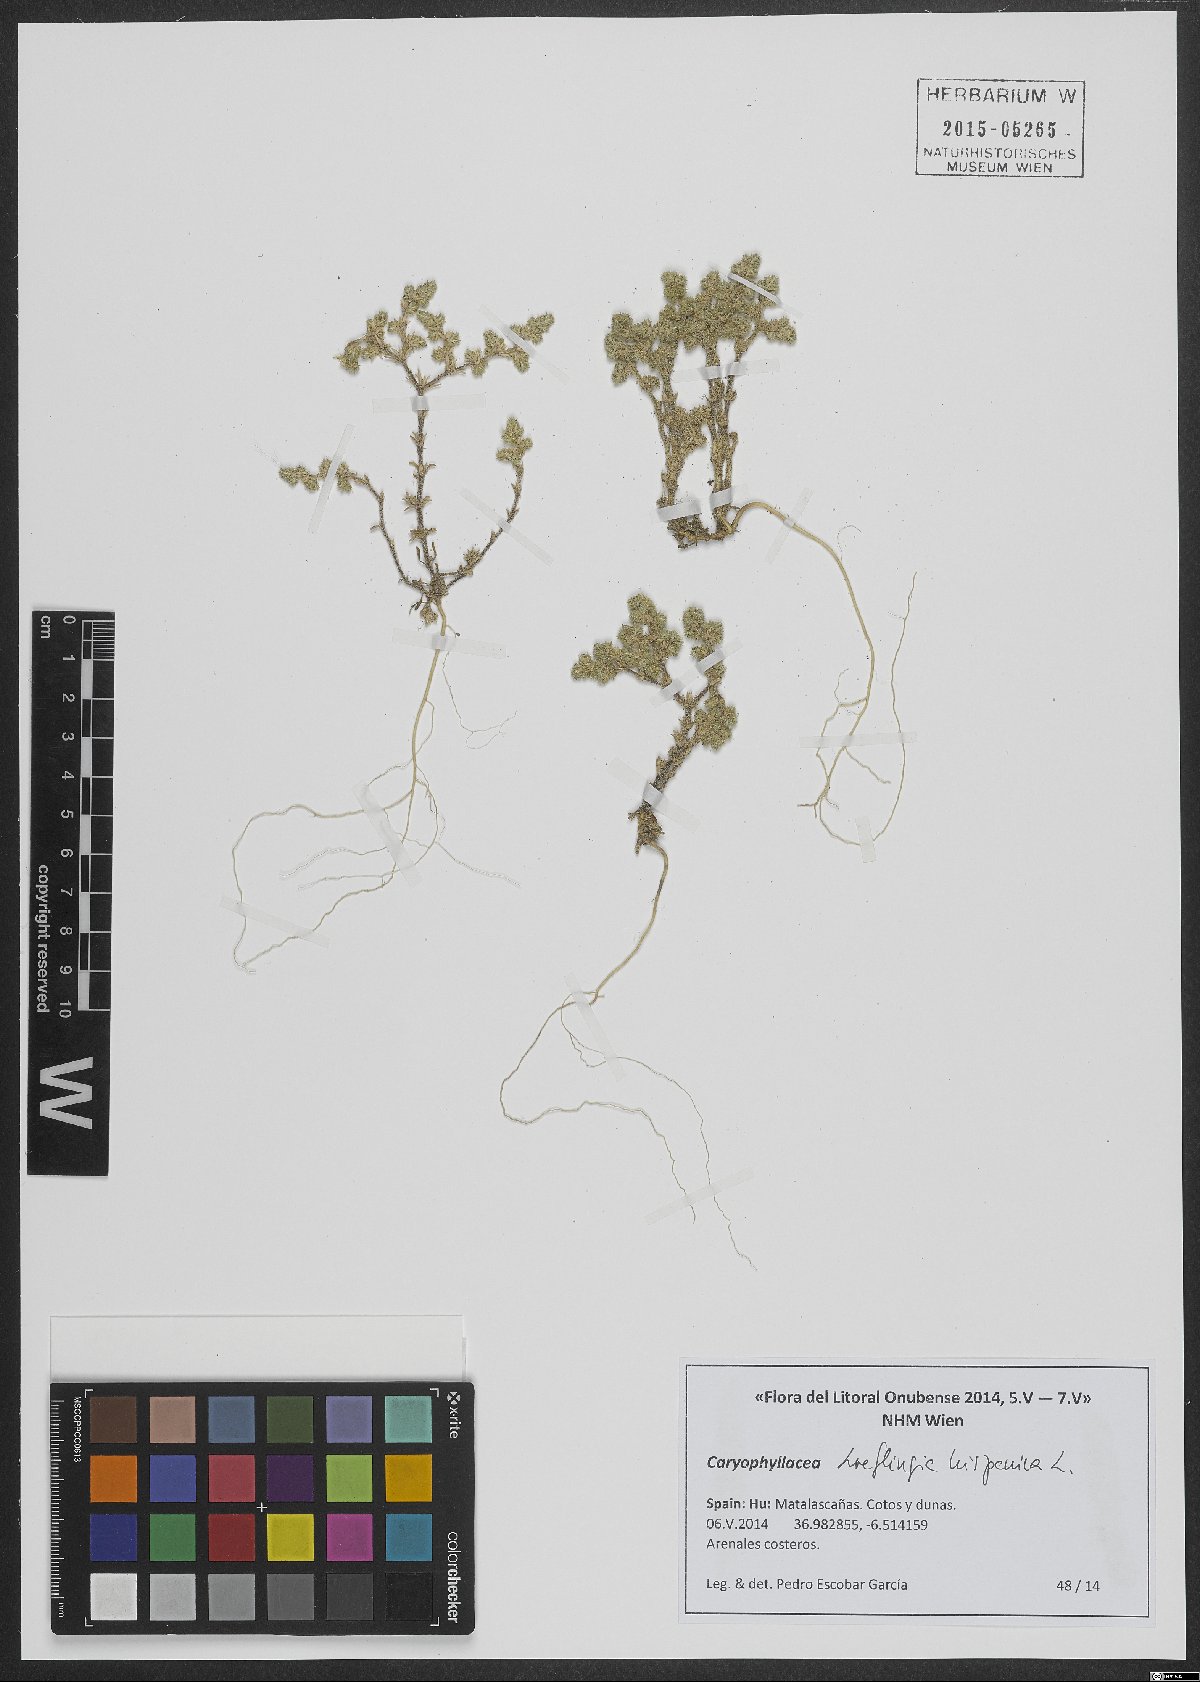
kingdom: Plantae
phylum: Tracheophyta
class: Magnoliopsida
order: Caryophyllales
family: Caryophyllaceae
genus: Loeflingia
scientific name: Loeflingia hispanica
